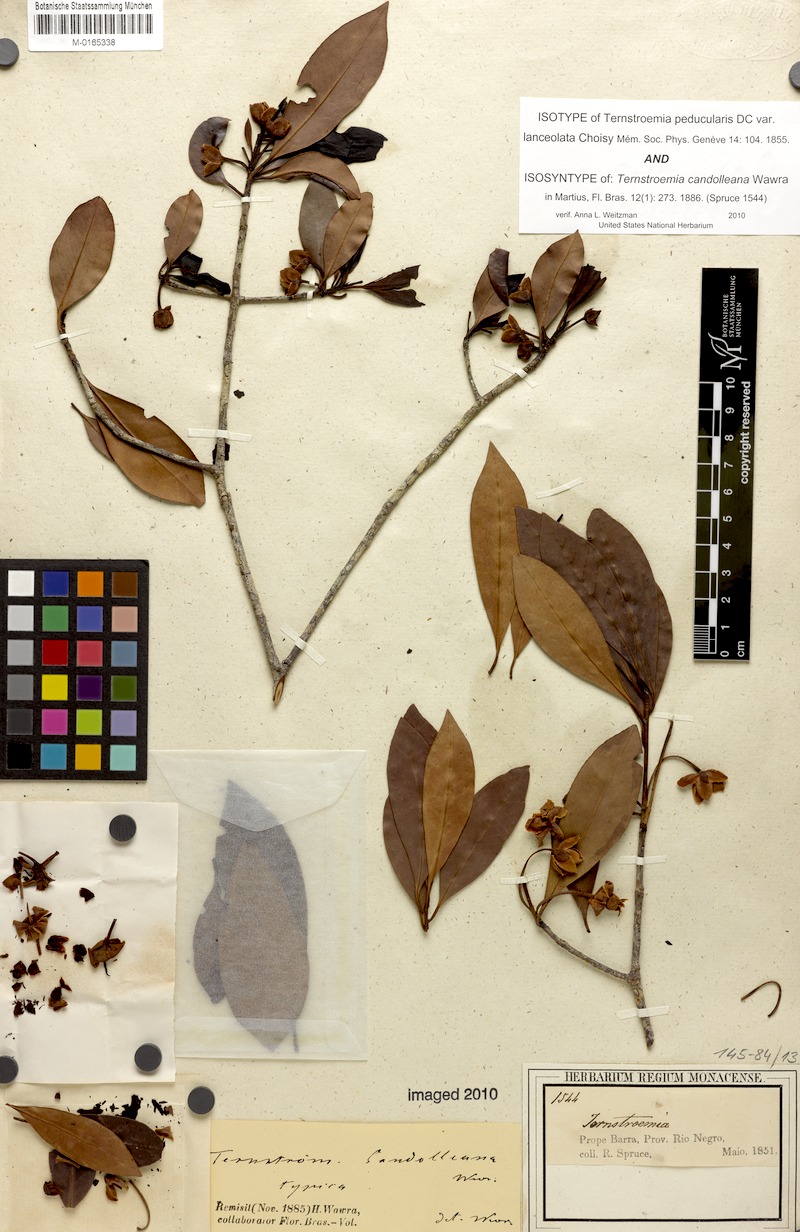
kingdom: Plantae
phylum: Tracheophyta
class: Magnoliopsida
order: Ericales
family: Pentaphylacaceae
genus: Ternstroemia
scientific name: Ternstroemia candolleana
